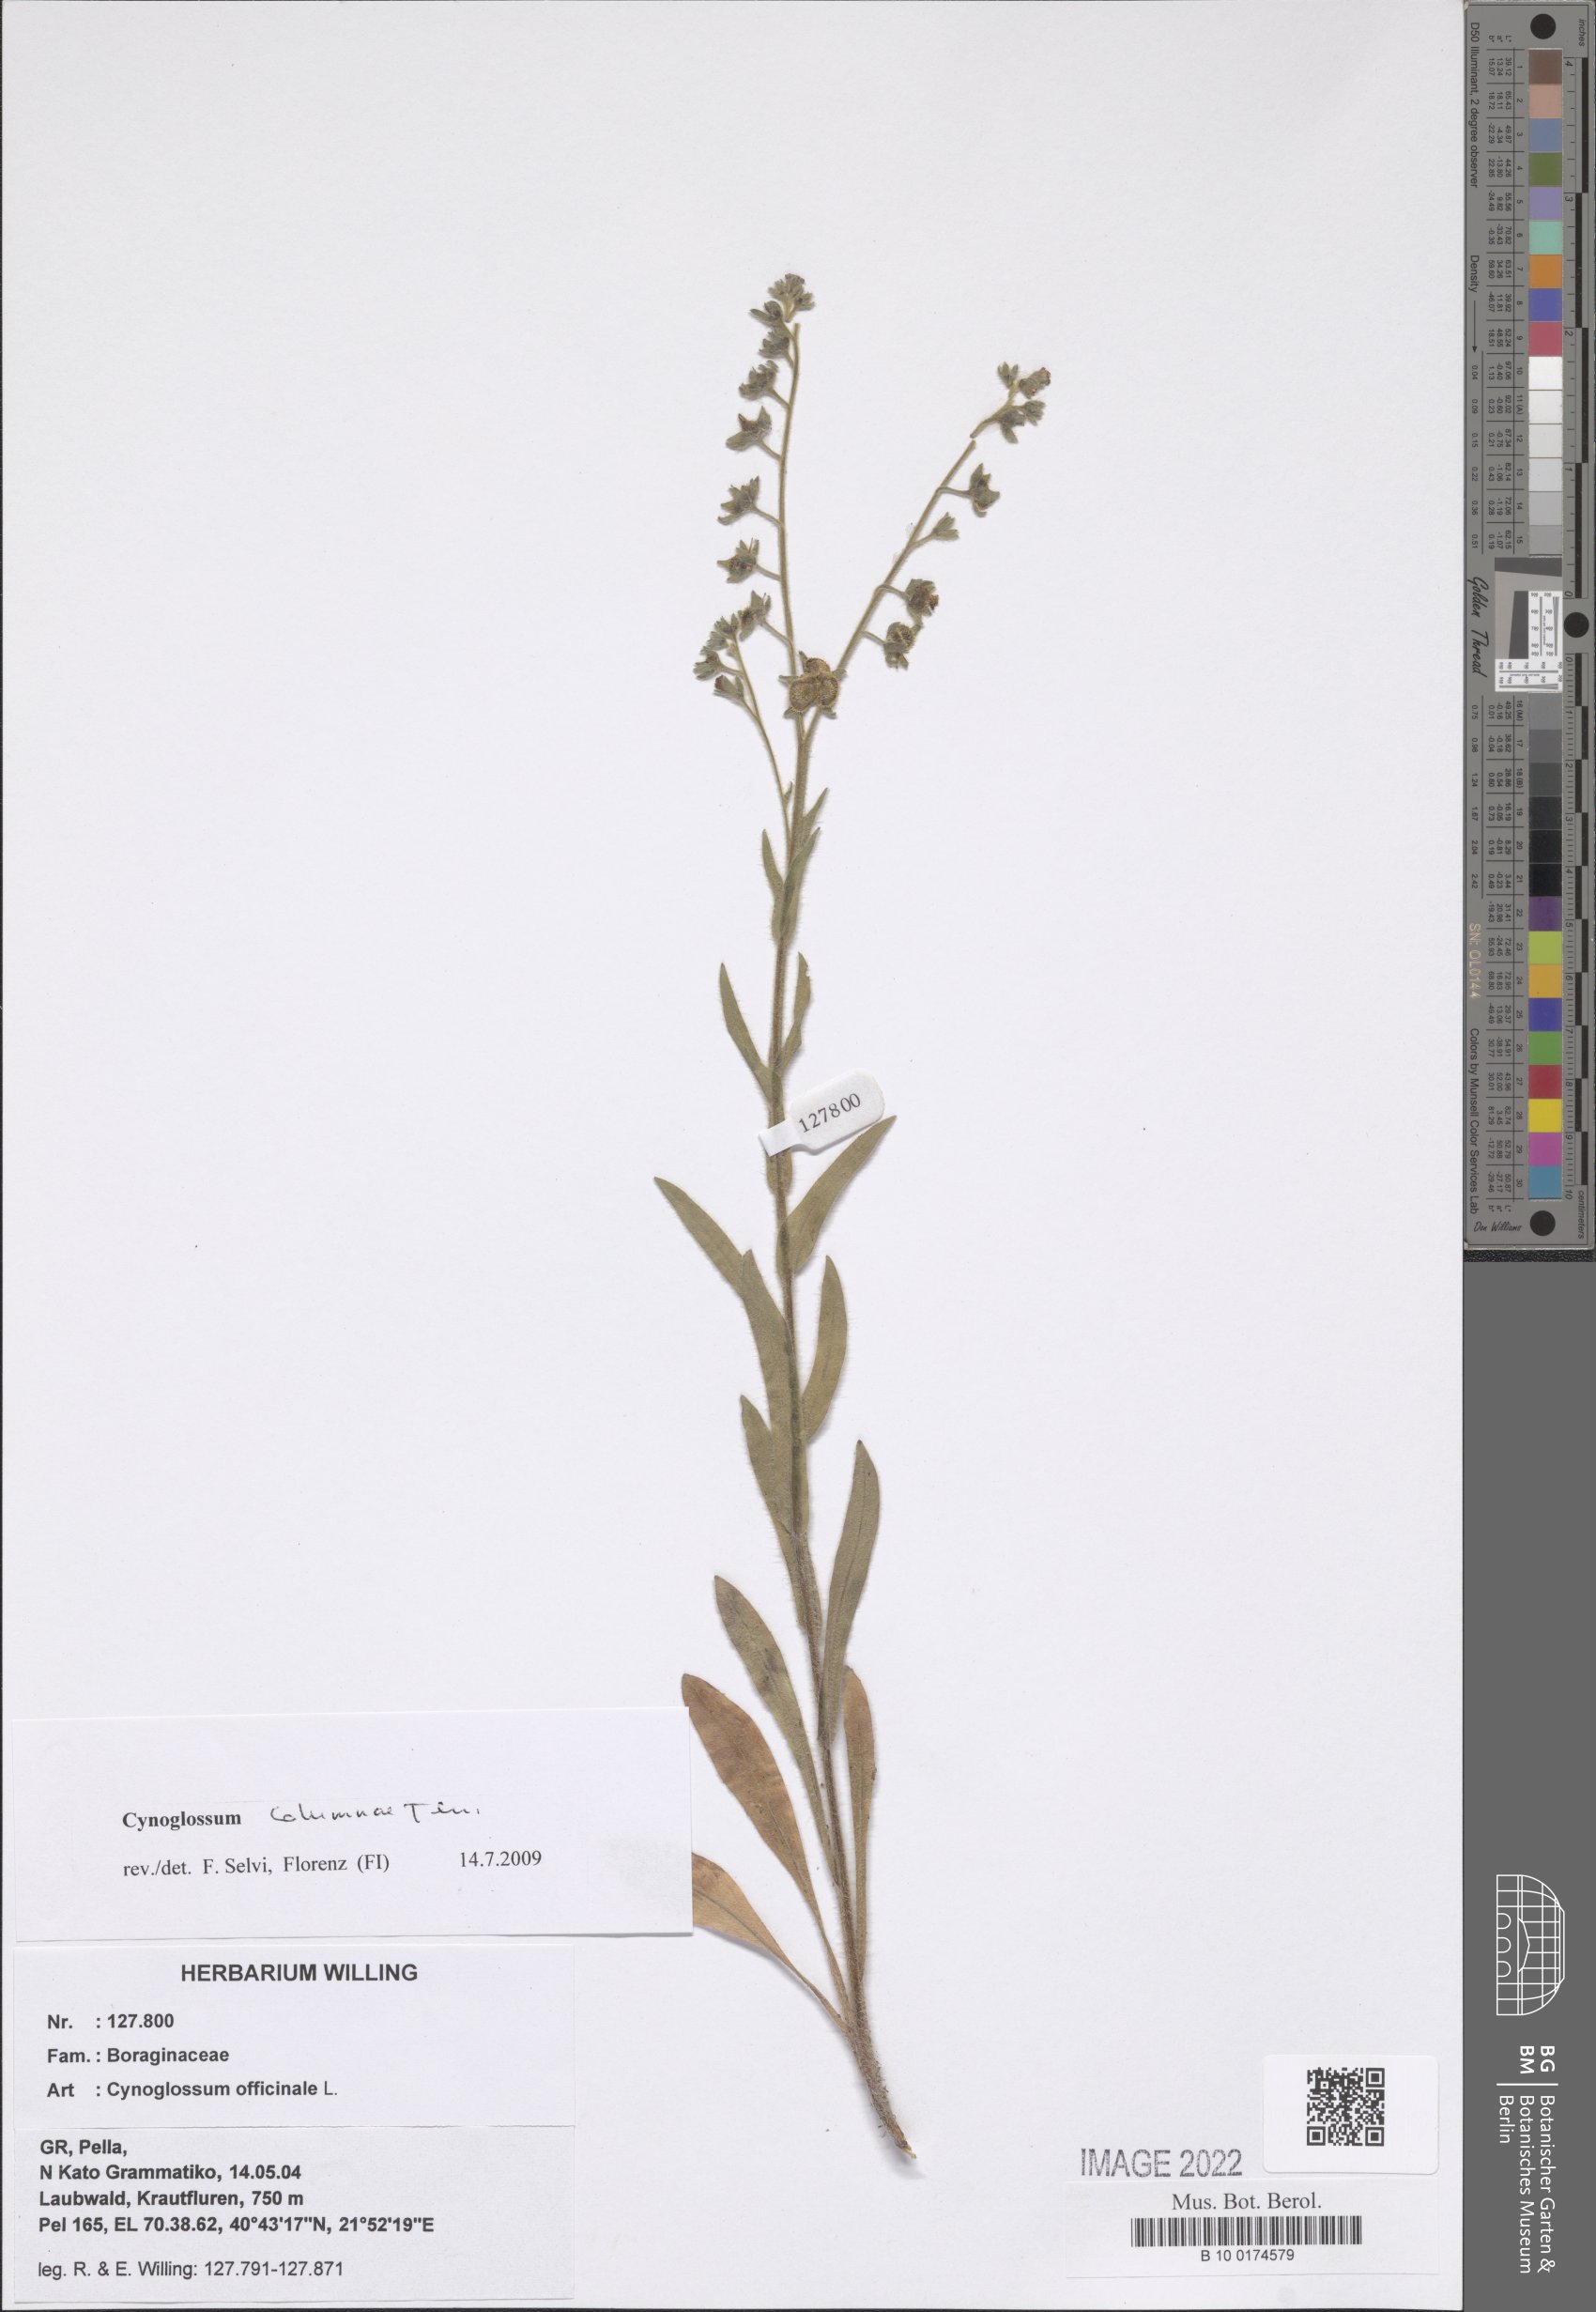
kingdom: Plantae
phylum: Tracheophyta
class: Magnoliopsida
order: Boraginales
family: Boraginaceae
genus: Rindera
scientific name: Rindera columnae
